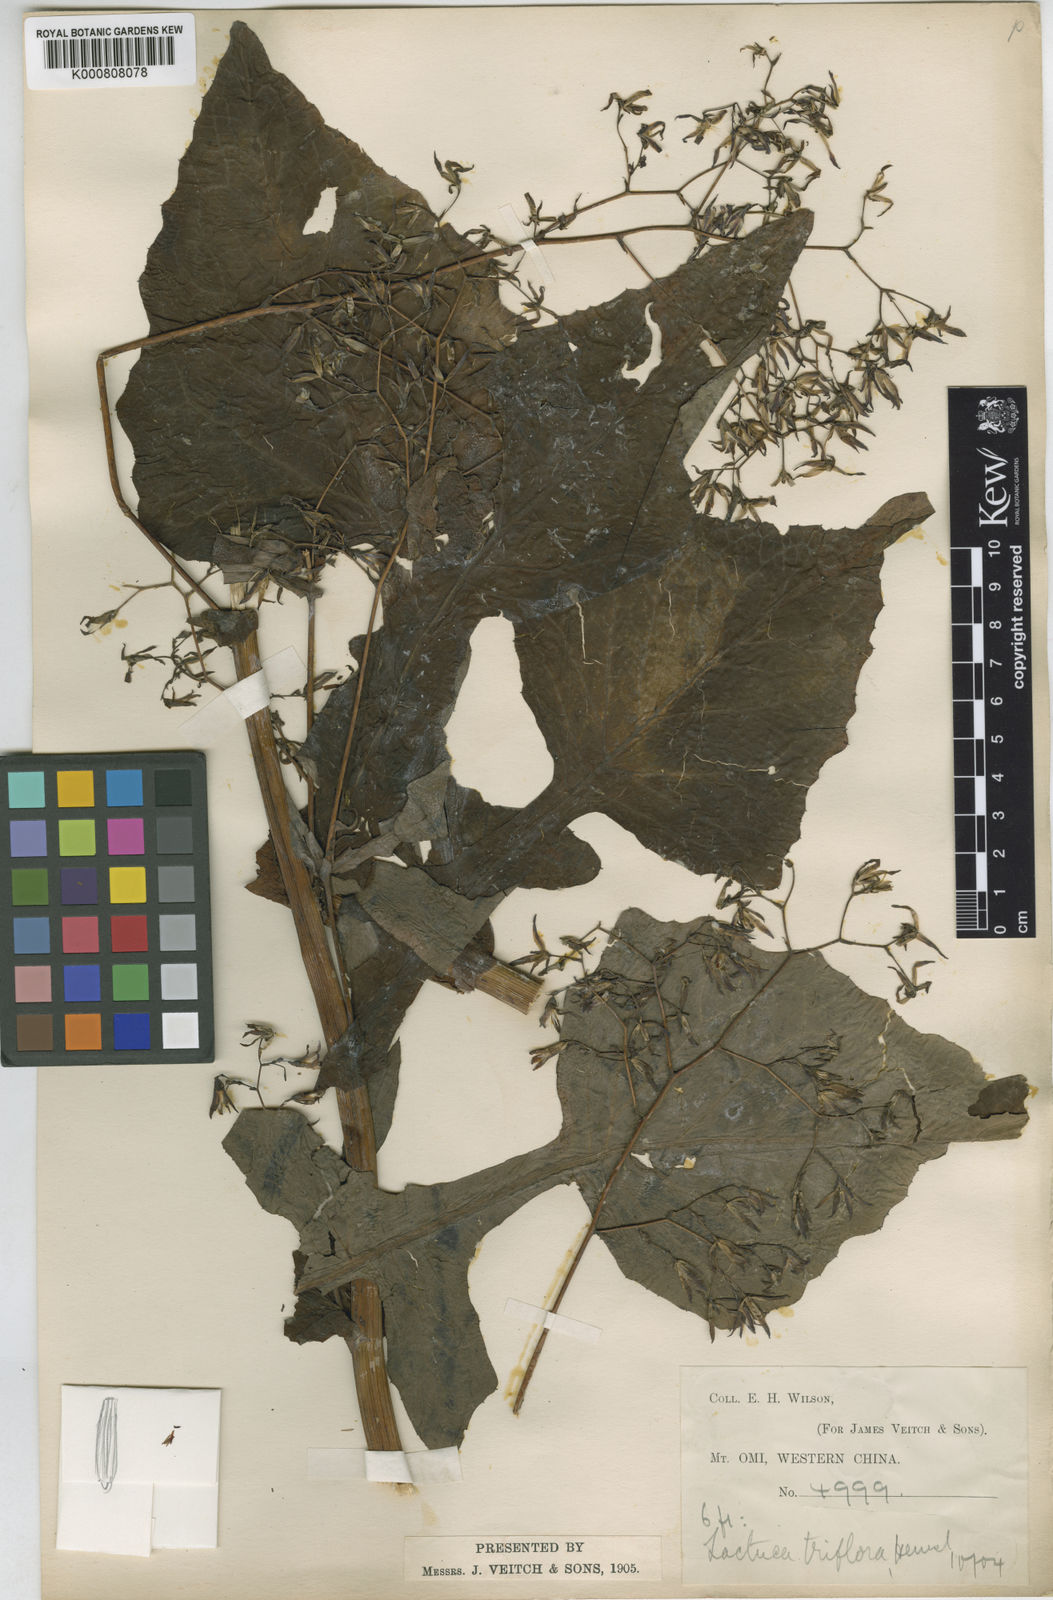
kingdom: Plantae
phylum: Tracheophyta
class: Magnoliopsida
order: Asterales
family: Asteraceae
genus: Notoseris
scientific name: Notoseris triflora
